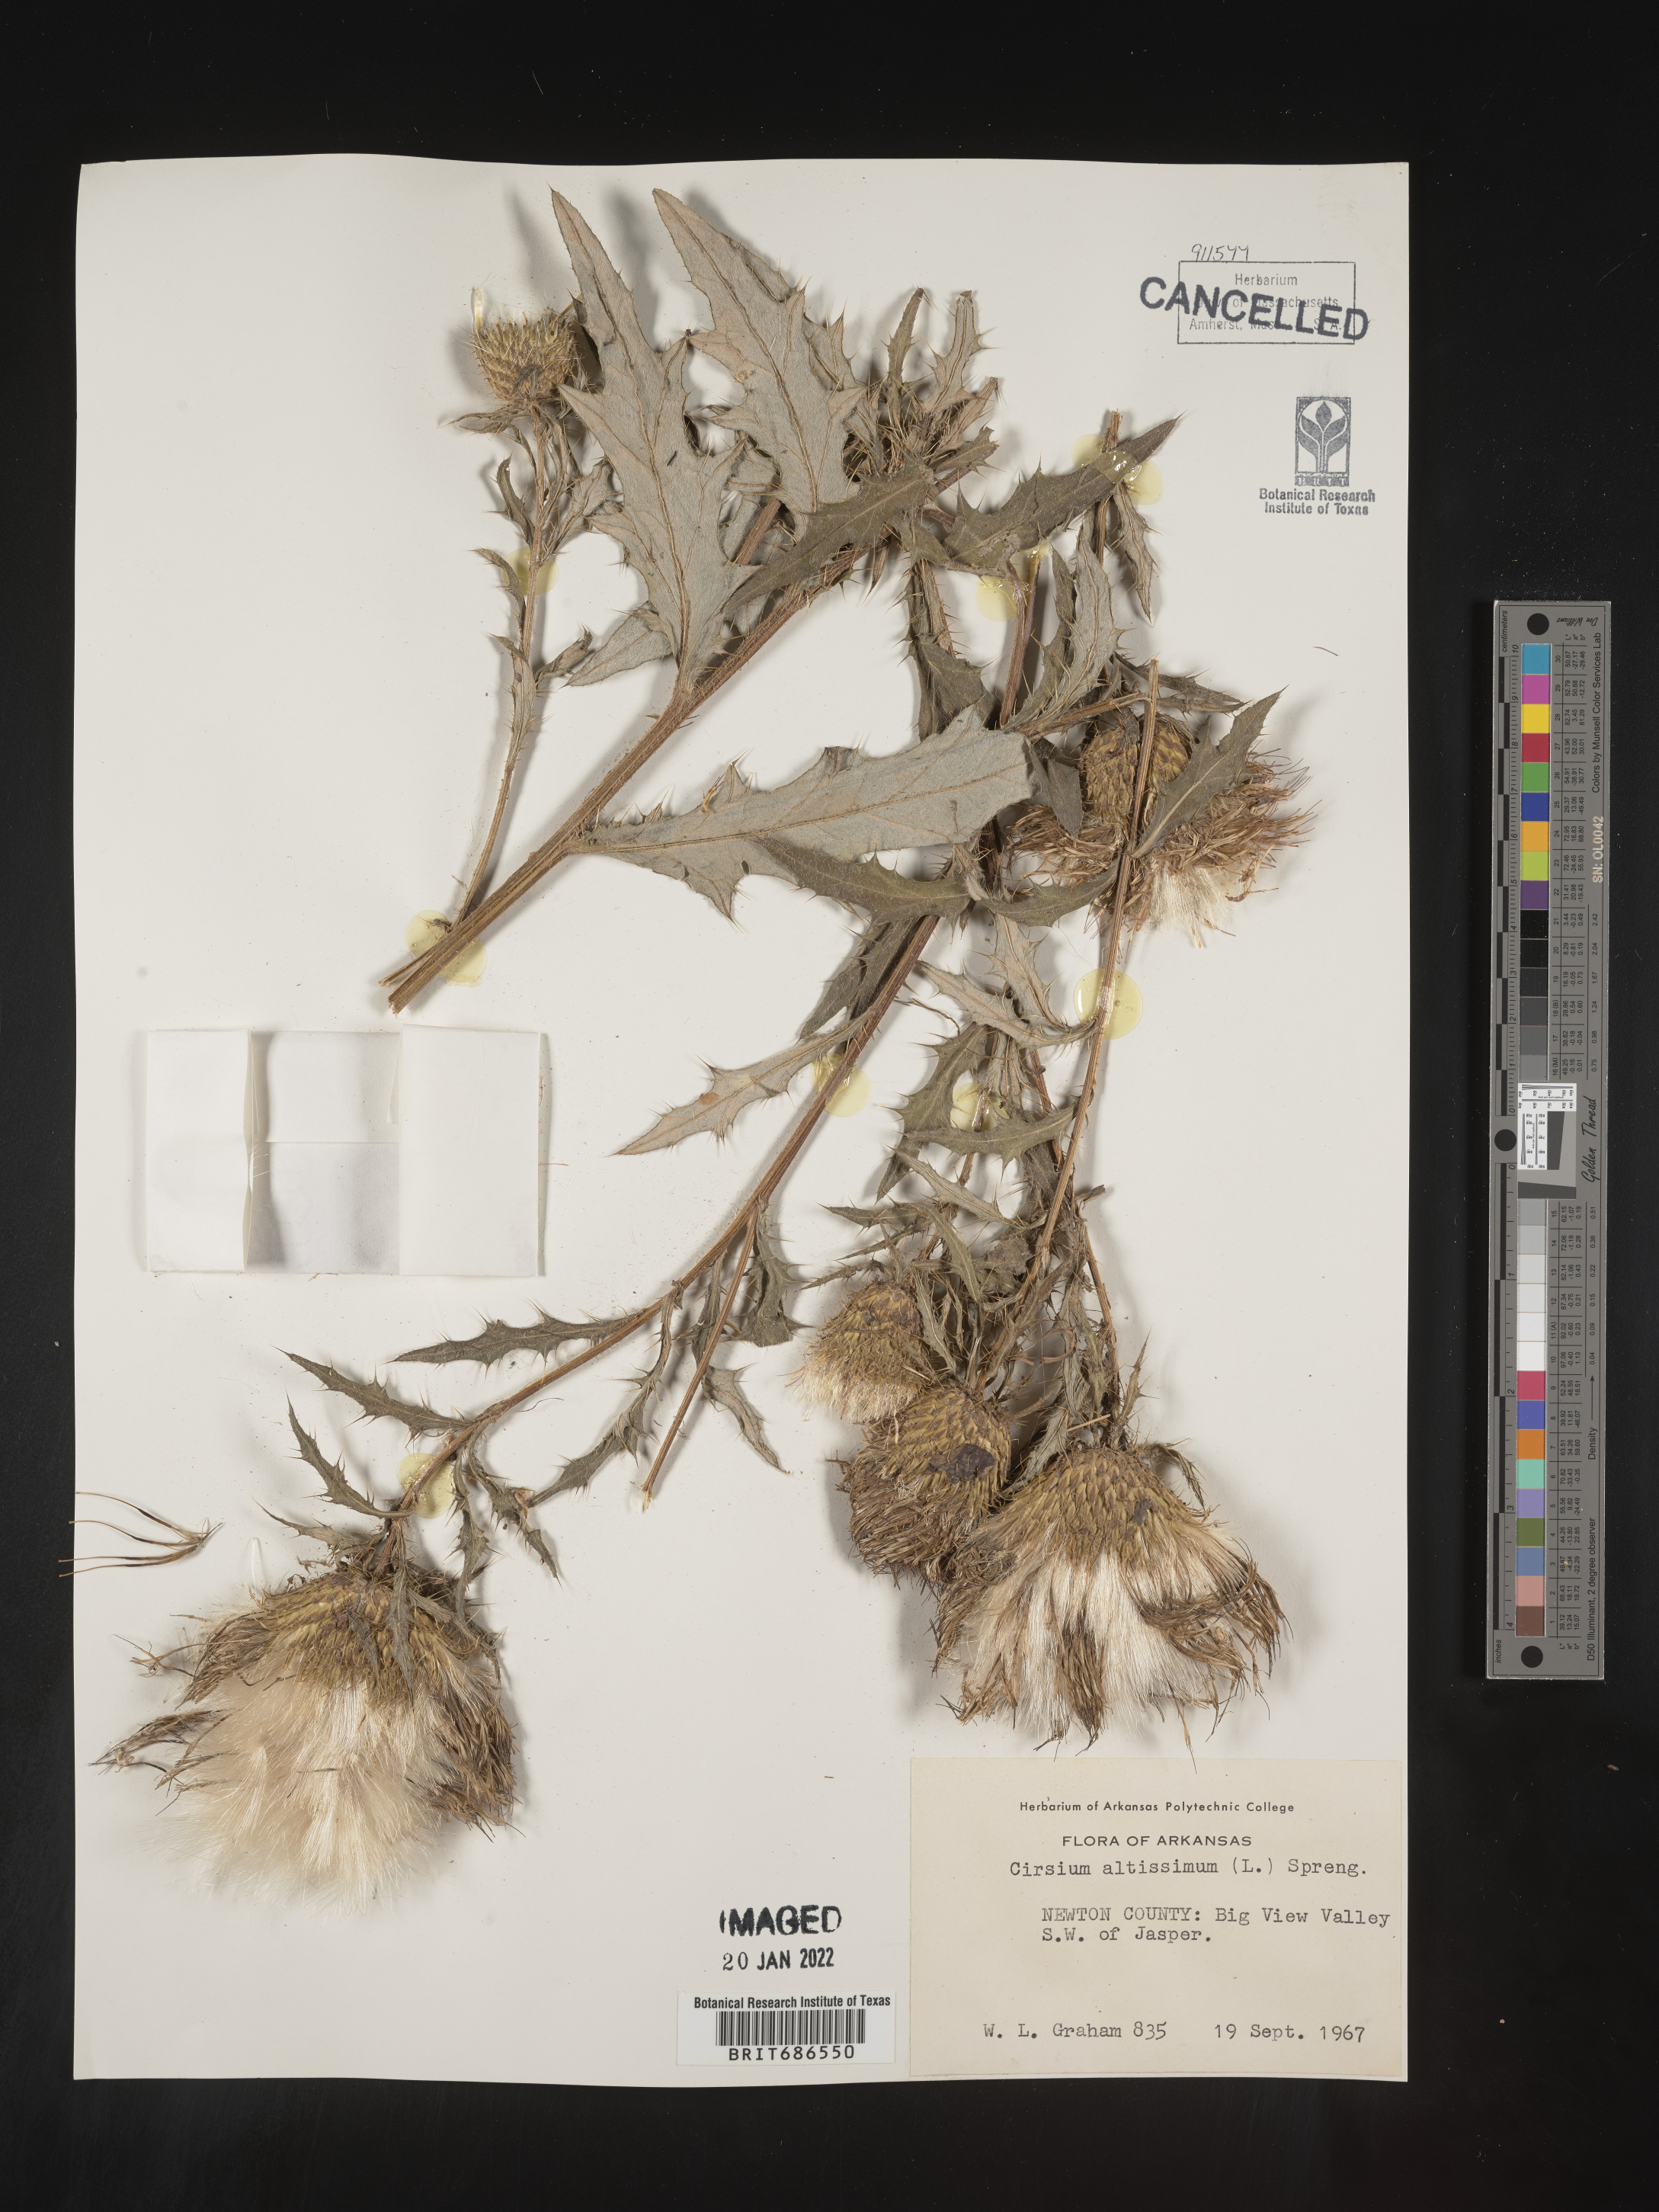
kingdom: Plantae
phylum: Tracheophyta
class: Magnoliopsida
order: Asterales
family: Asteraceae
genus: Cirsium
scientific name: Cirsium palustre
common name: Marsh thistle
